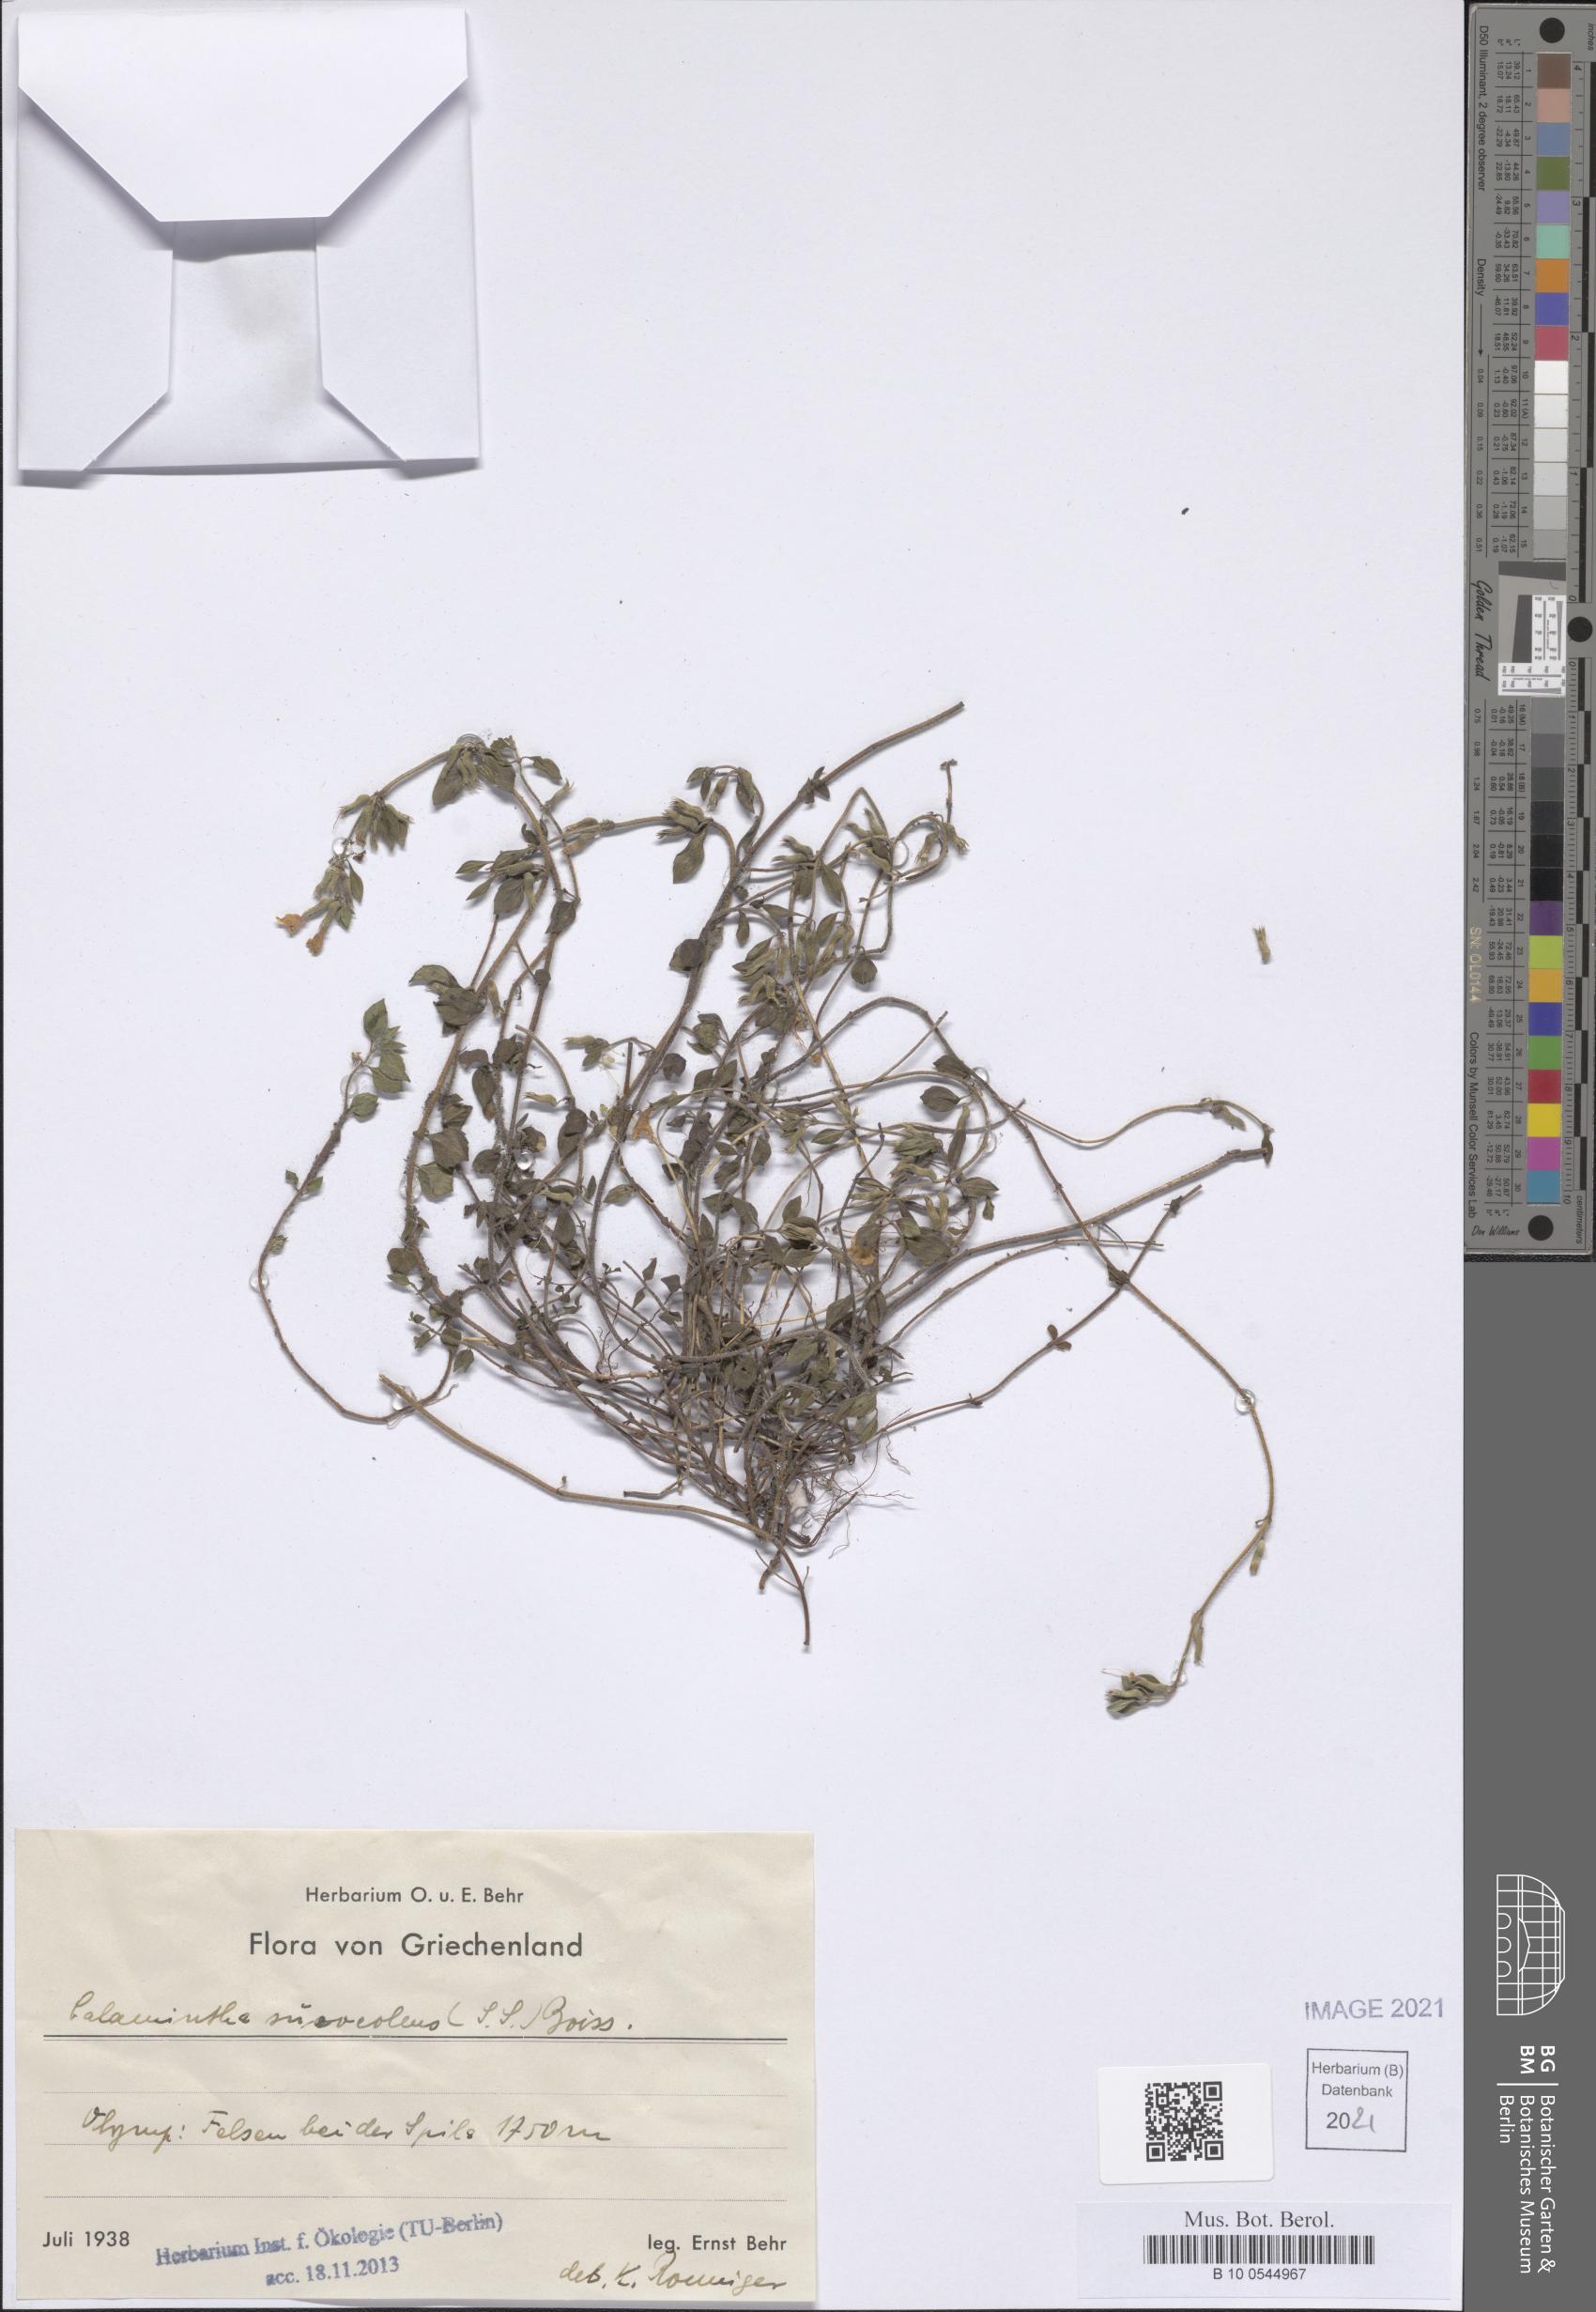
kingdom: Plantae
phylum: Tracheophyta
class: Magnoliopsida
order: Lamiales
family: Lamiaceae
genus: Clinopodium
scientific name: Clinopodium alpinum
